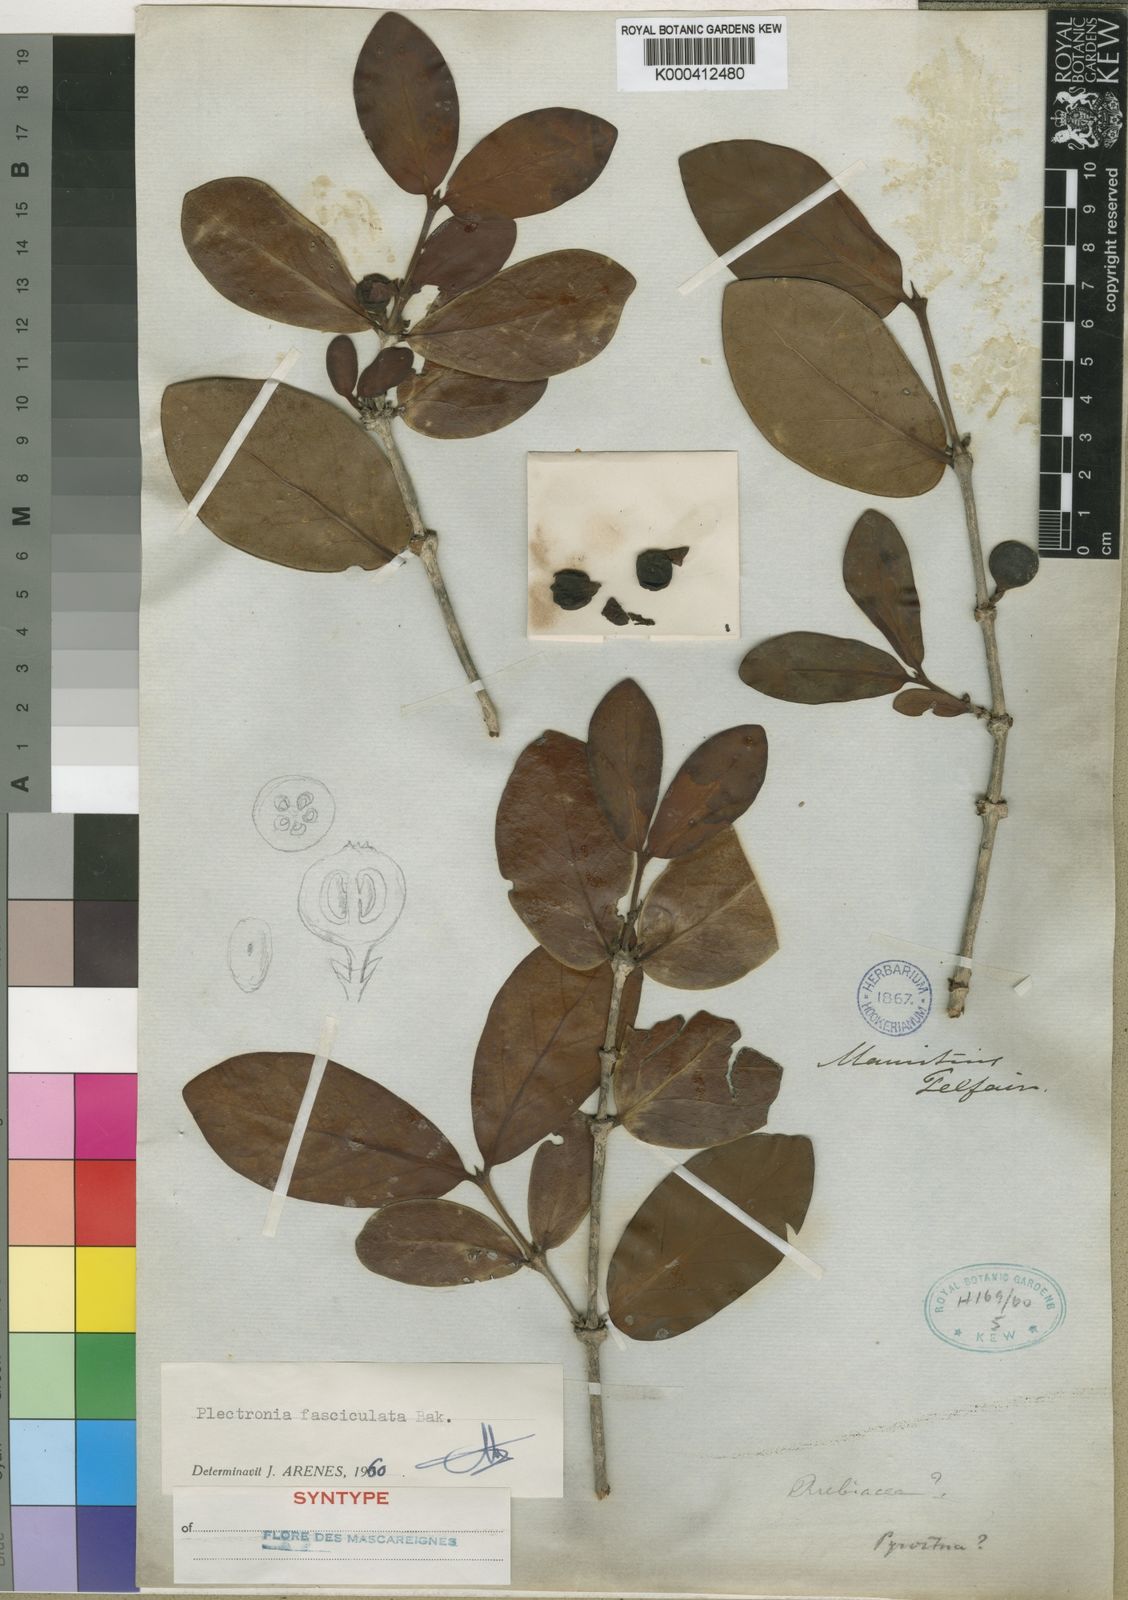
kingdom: Plantae
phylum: Tracheophyta
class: Magnoliopsida
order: Gentianales
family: Rubiaceae
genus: Pyrostria
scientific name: Pyrostria fasciculata
